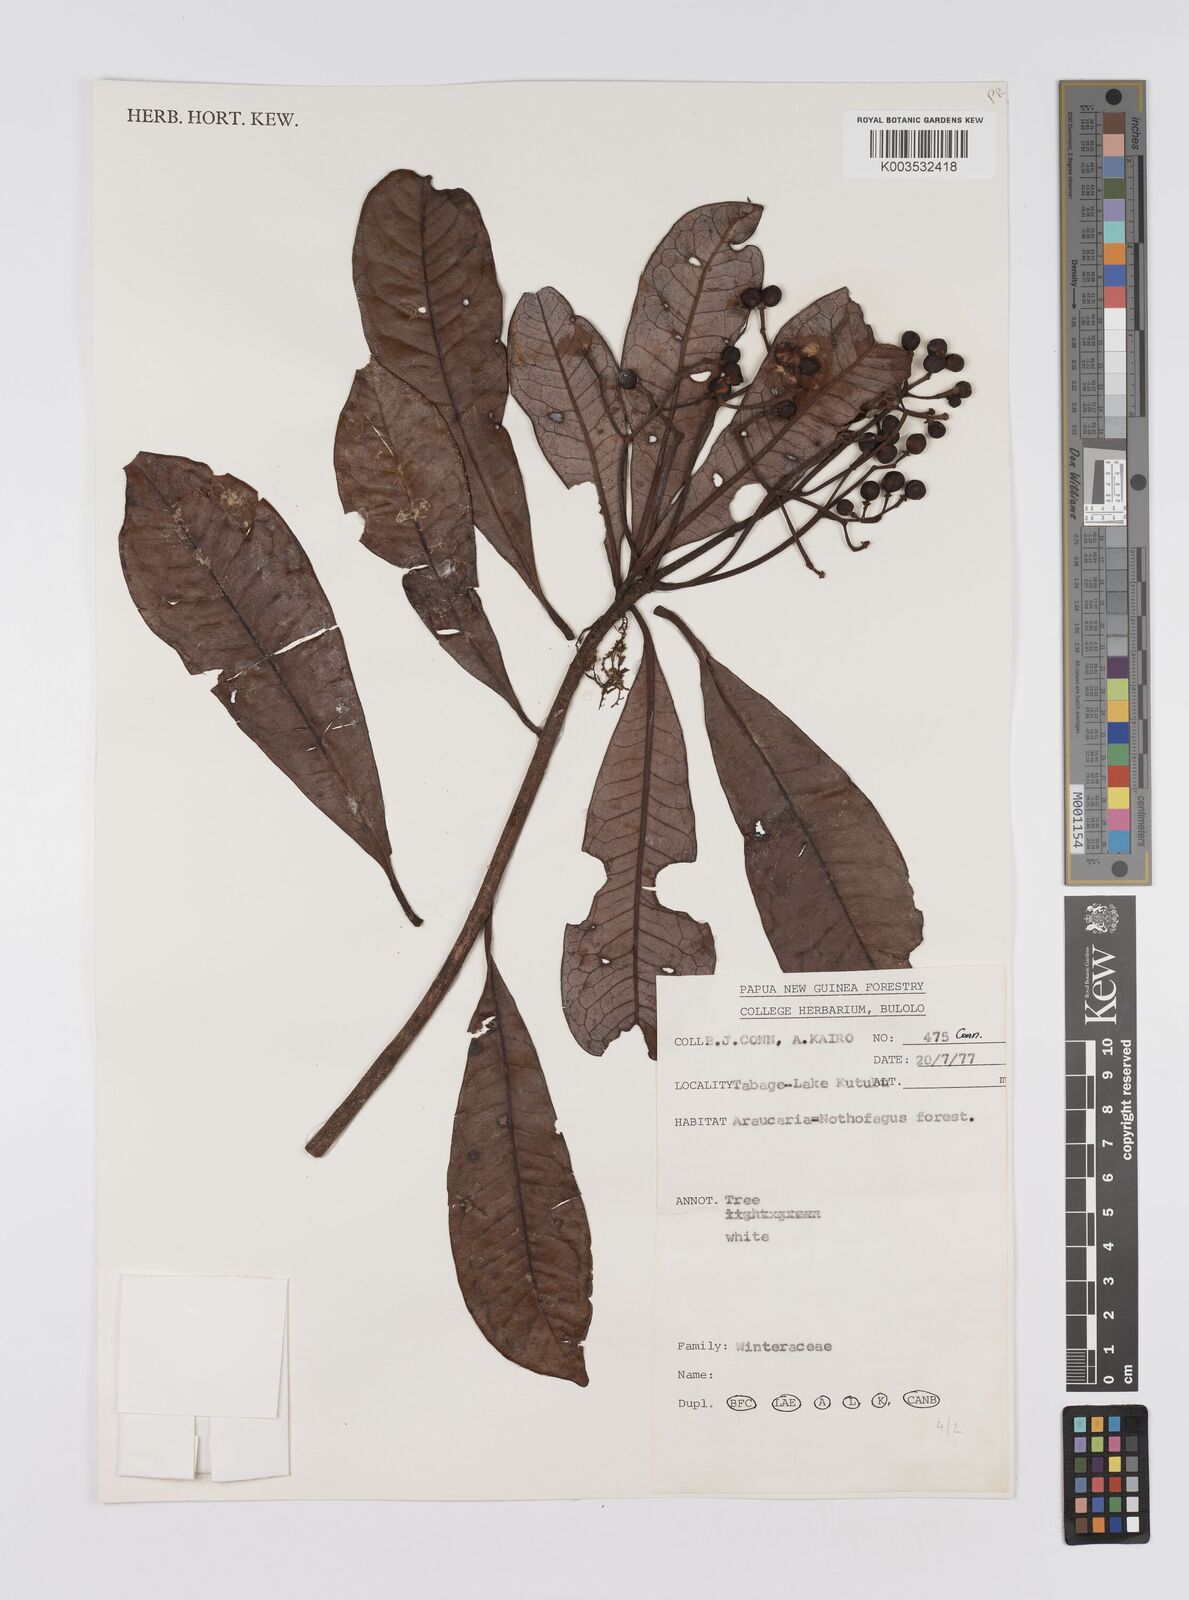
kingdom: Plantae
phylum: Tracheophyta
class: Magnoliopsida
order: Canellales
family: Winteraceae
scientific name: Winteraceae
